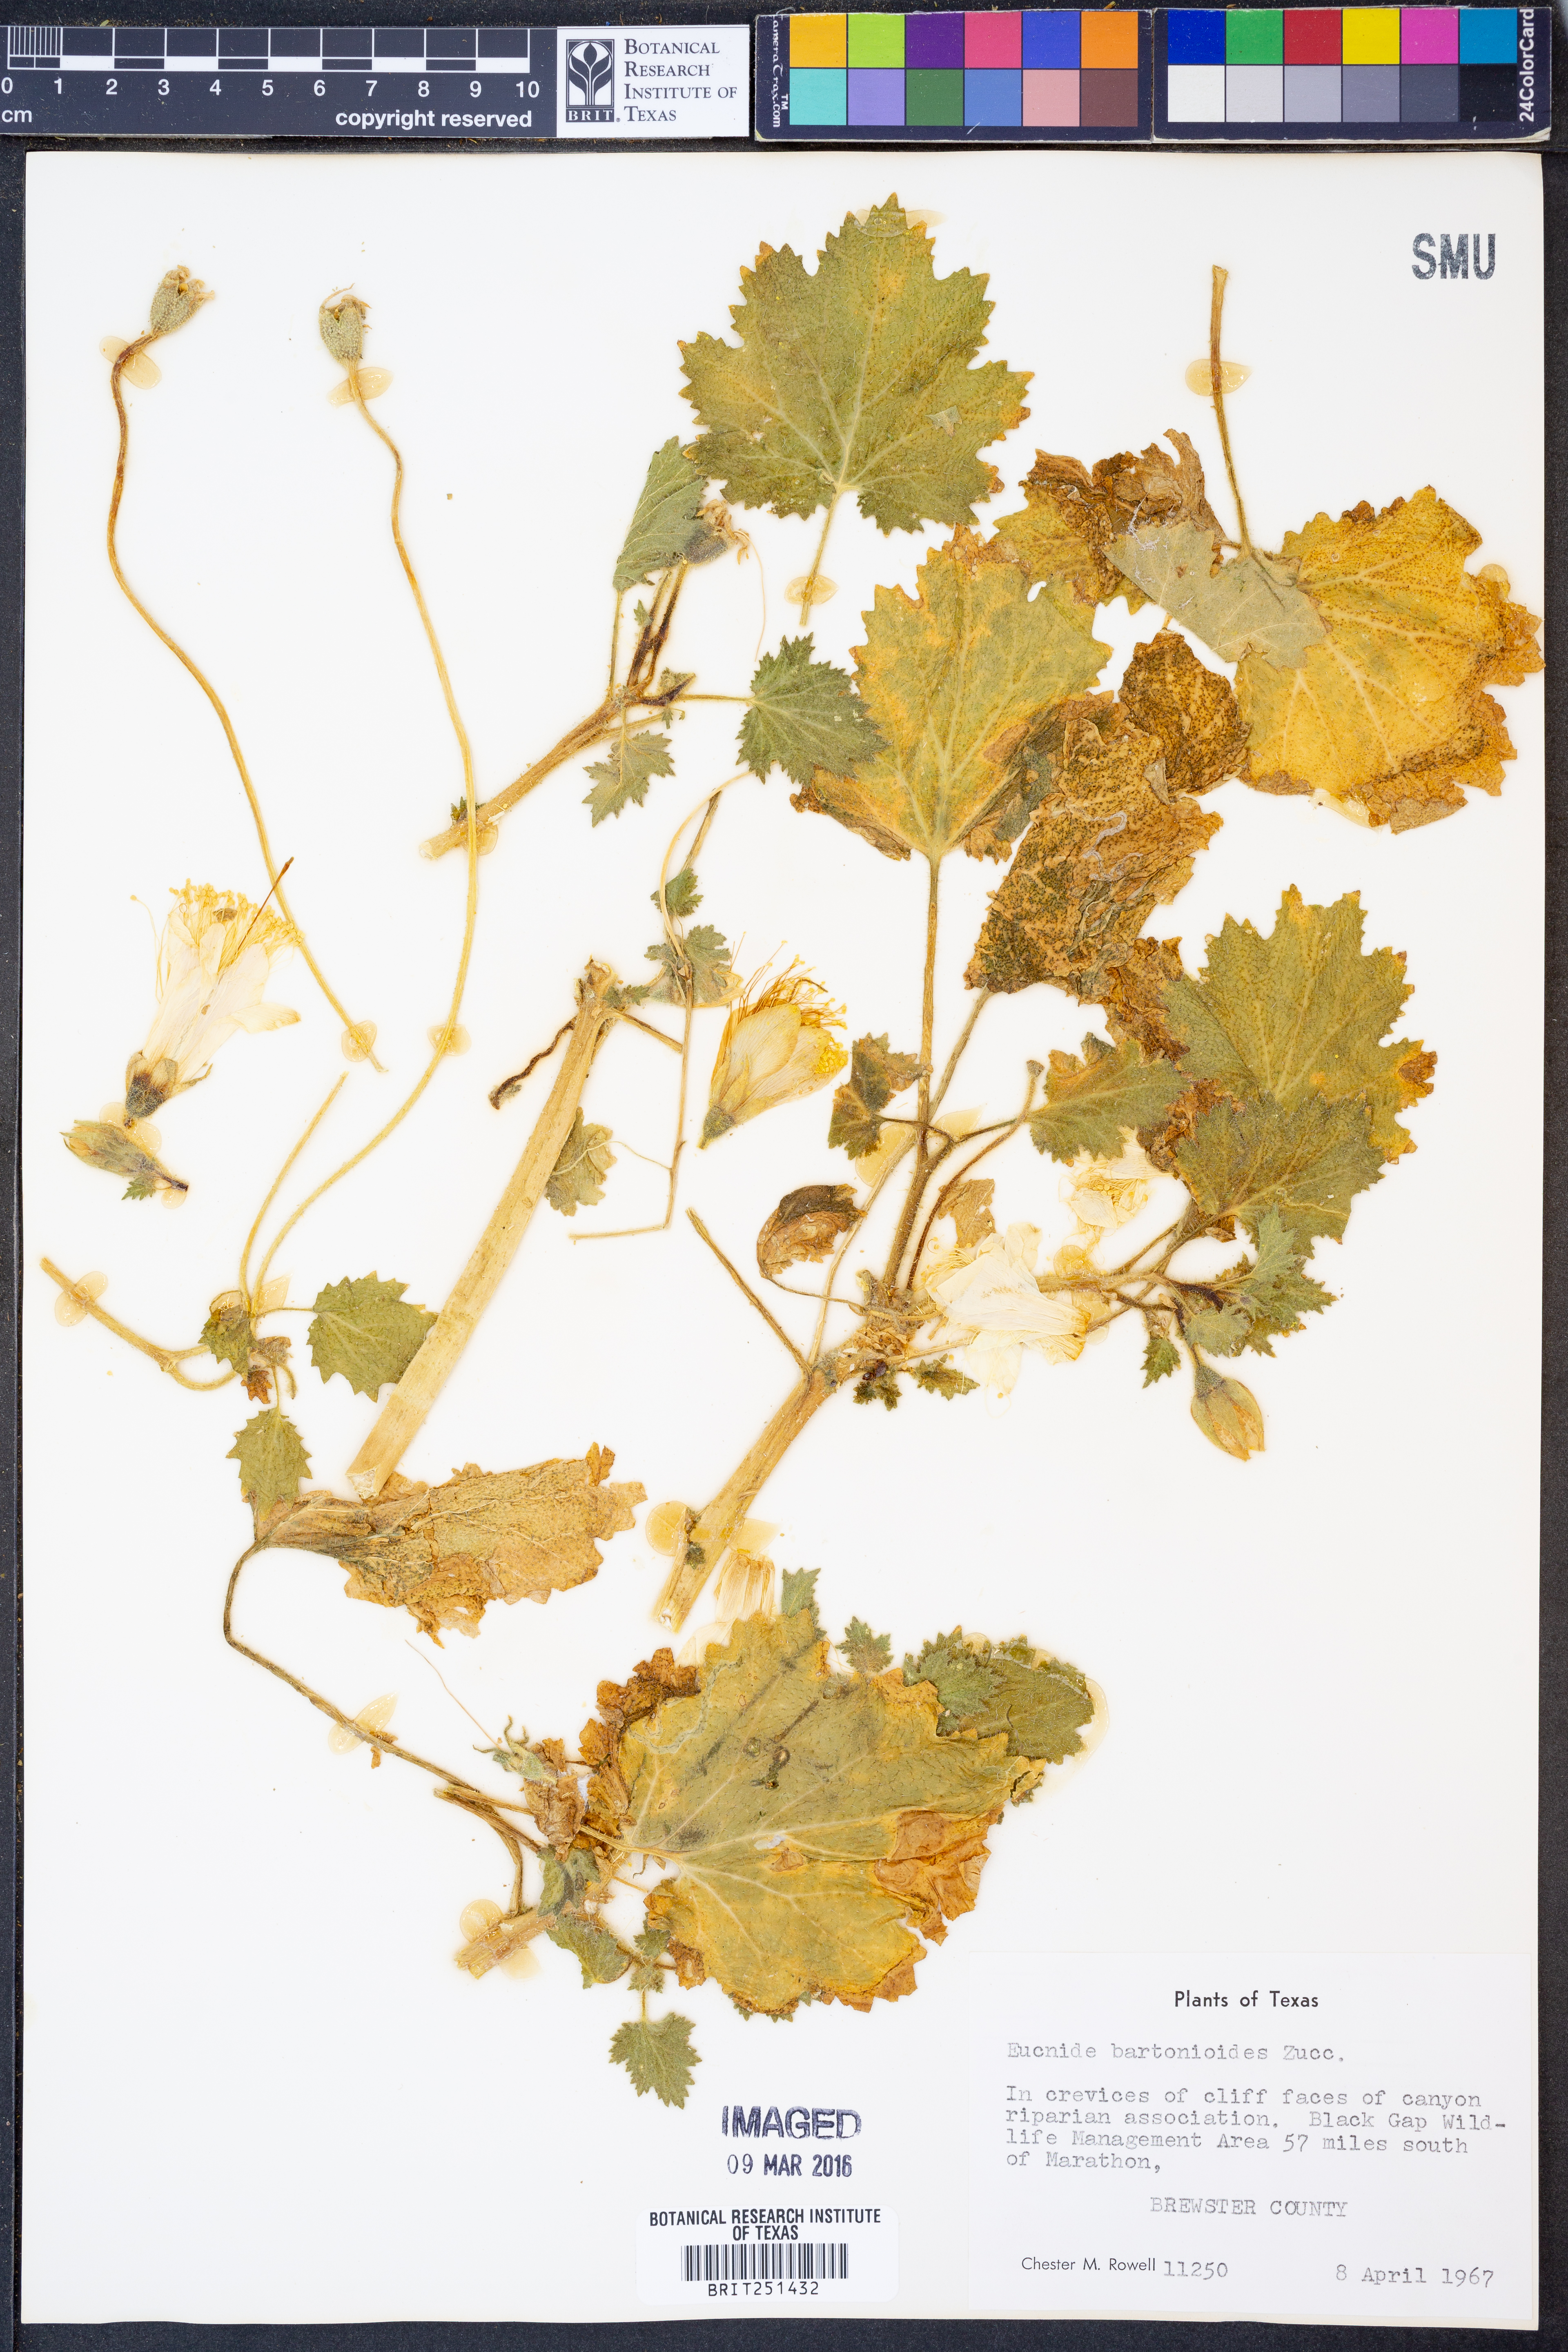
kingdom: Plantae
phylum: Tracheophyta
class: Magnoliopsida
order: Cornales
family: Loasaceae
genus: Eucnide
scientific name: Eucnide bartonioides
